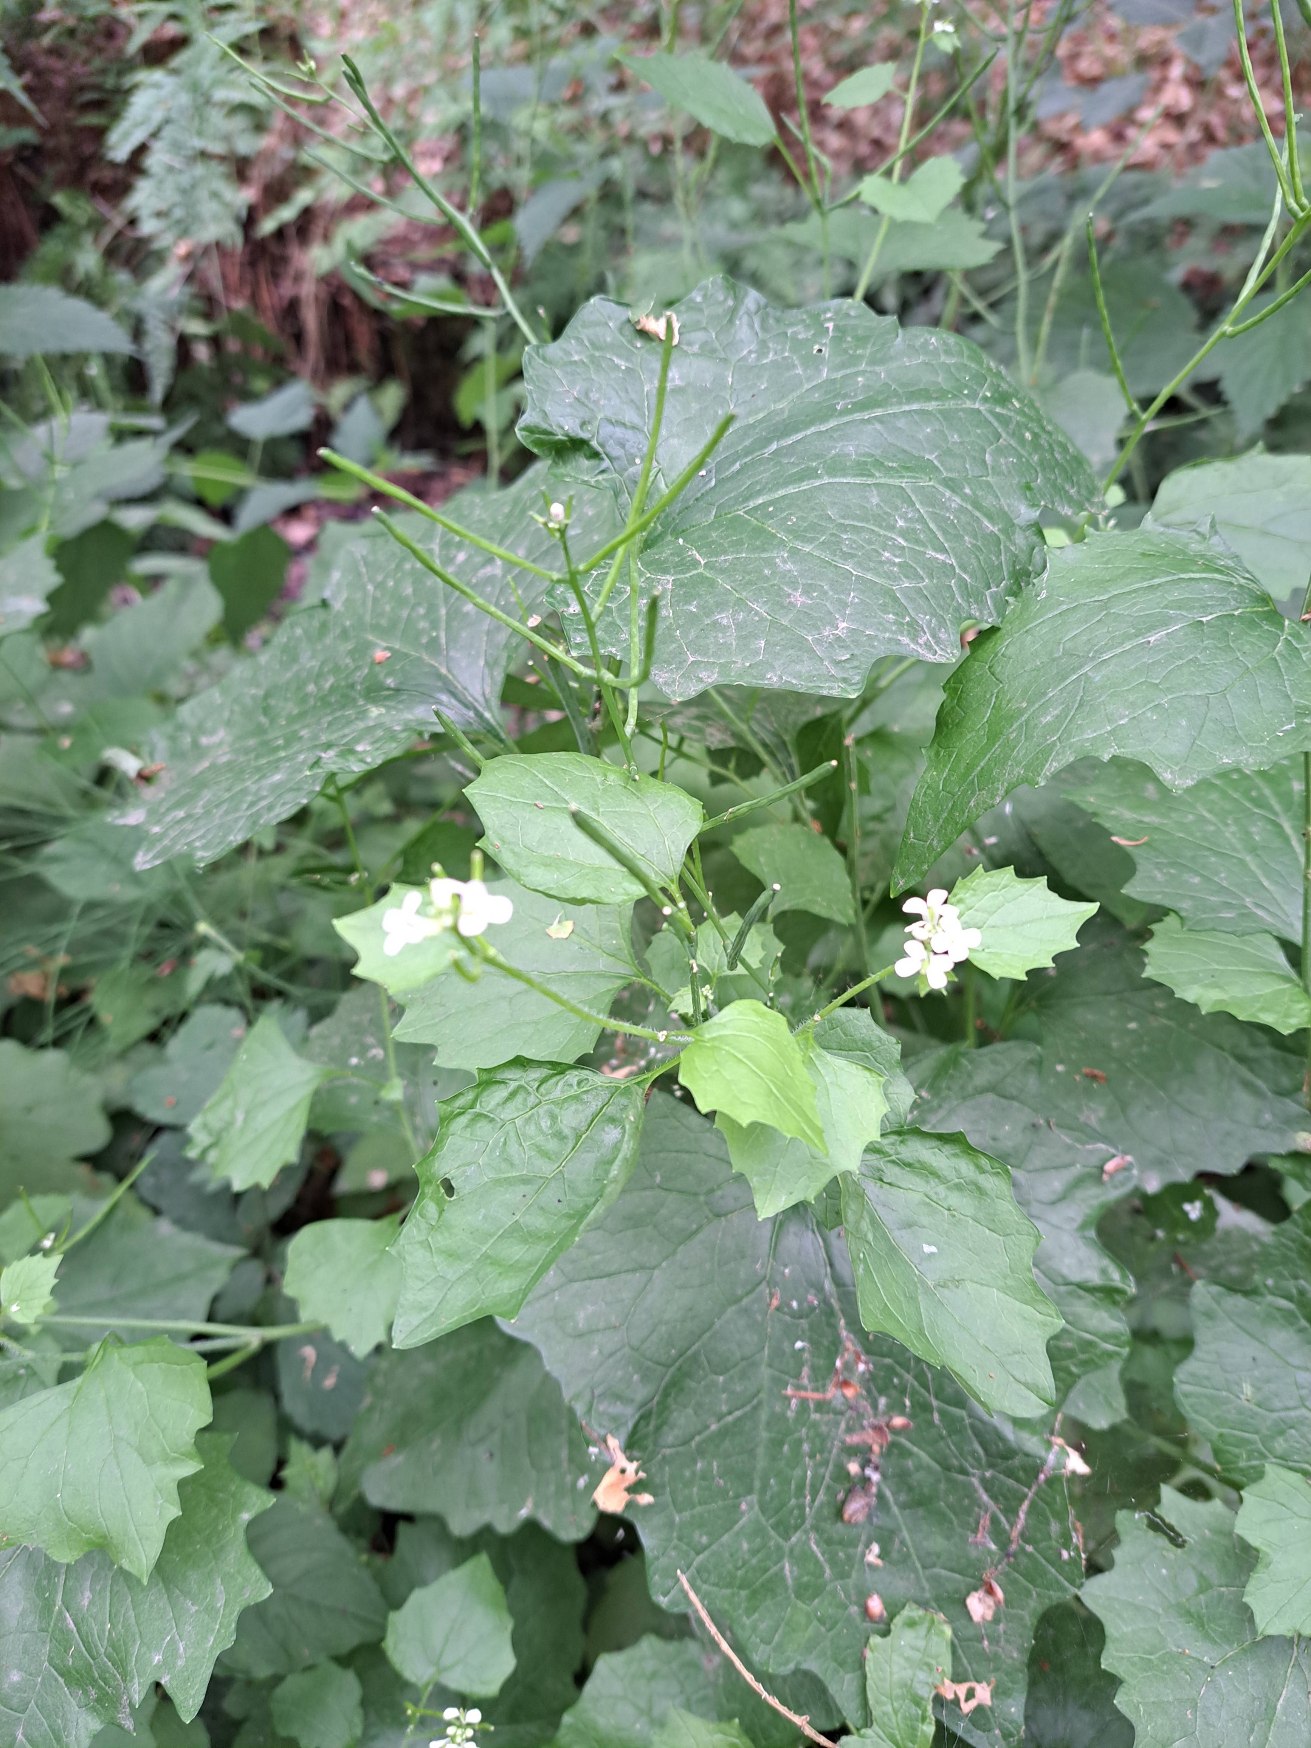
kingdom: Plantae
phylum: Tracheophyta
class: Magnoliopsida
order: Brassicales
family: Brassicaceae
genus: Alliaria
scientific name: Alliaria petiolata
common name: Løgkarse
